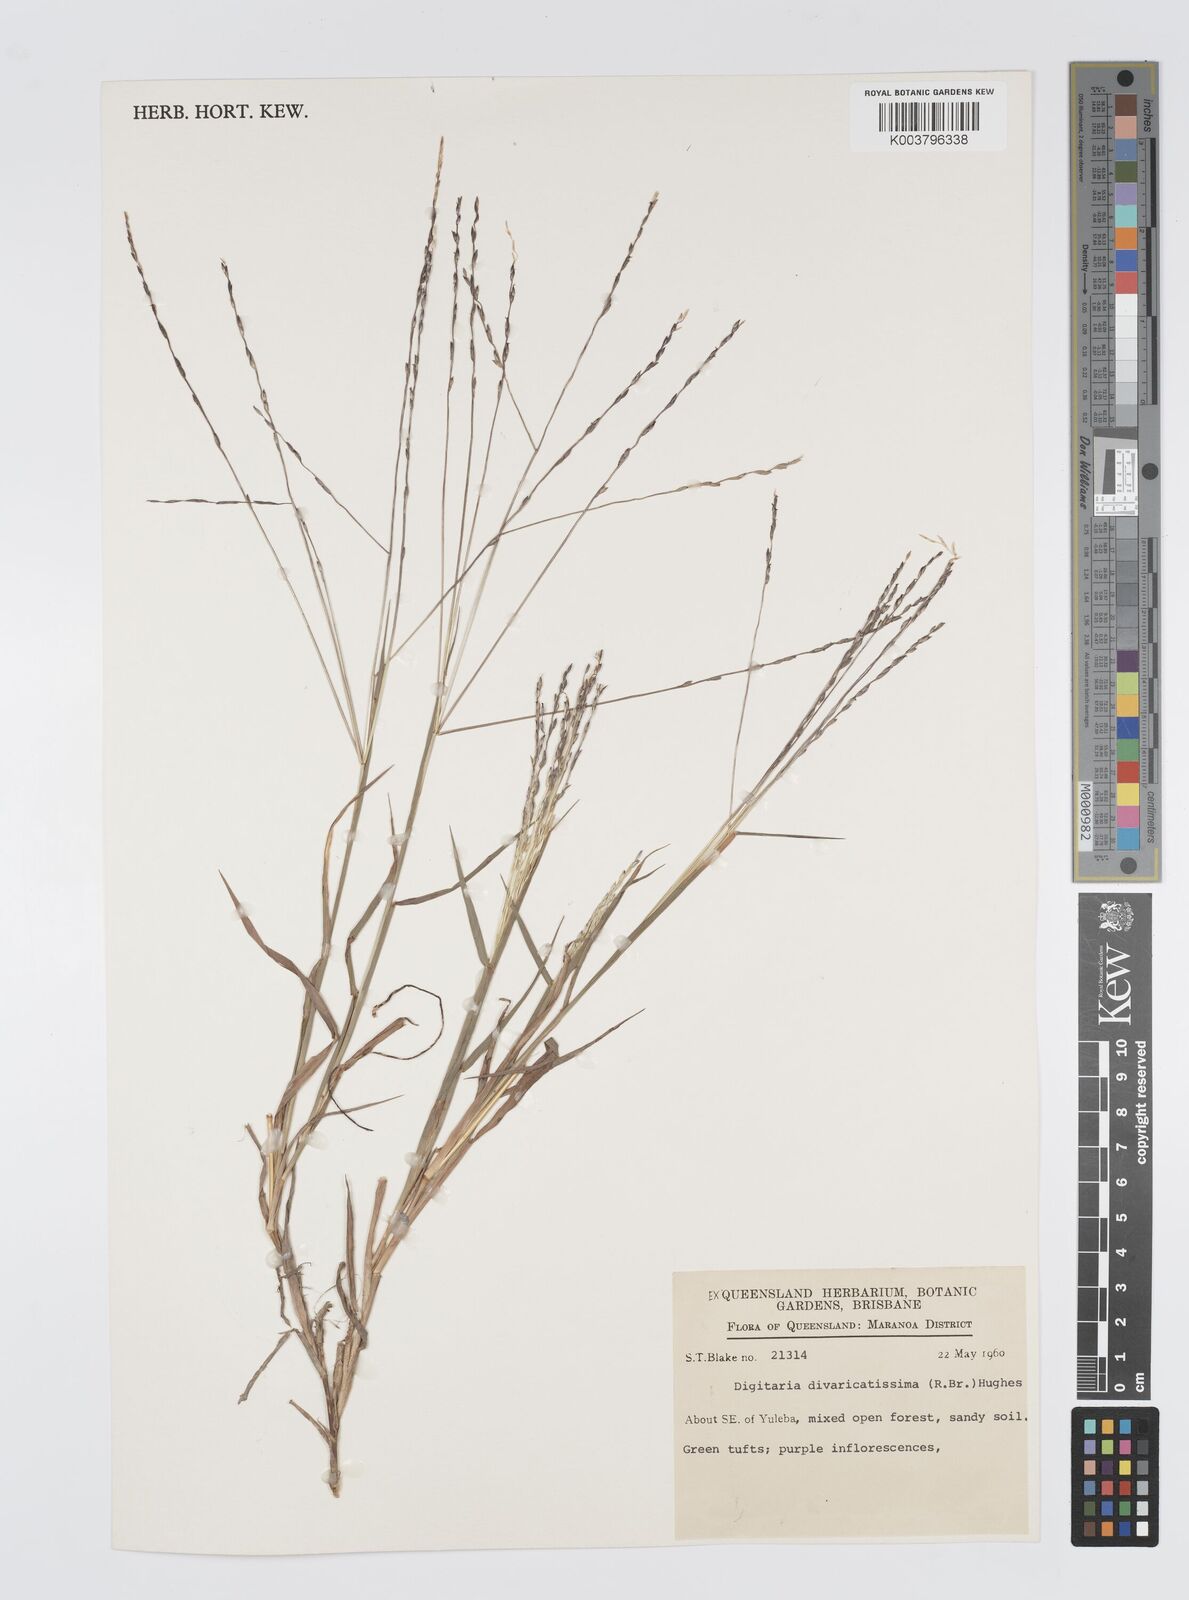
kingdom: Plantae
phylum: Tracheophyta
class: Liliopsida
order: Poales
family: Poaceae
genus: Digitaria
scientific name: Digitaria divaricatissima
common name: Crabgrass
